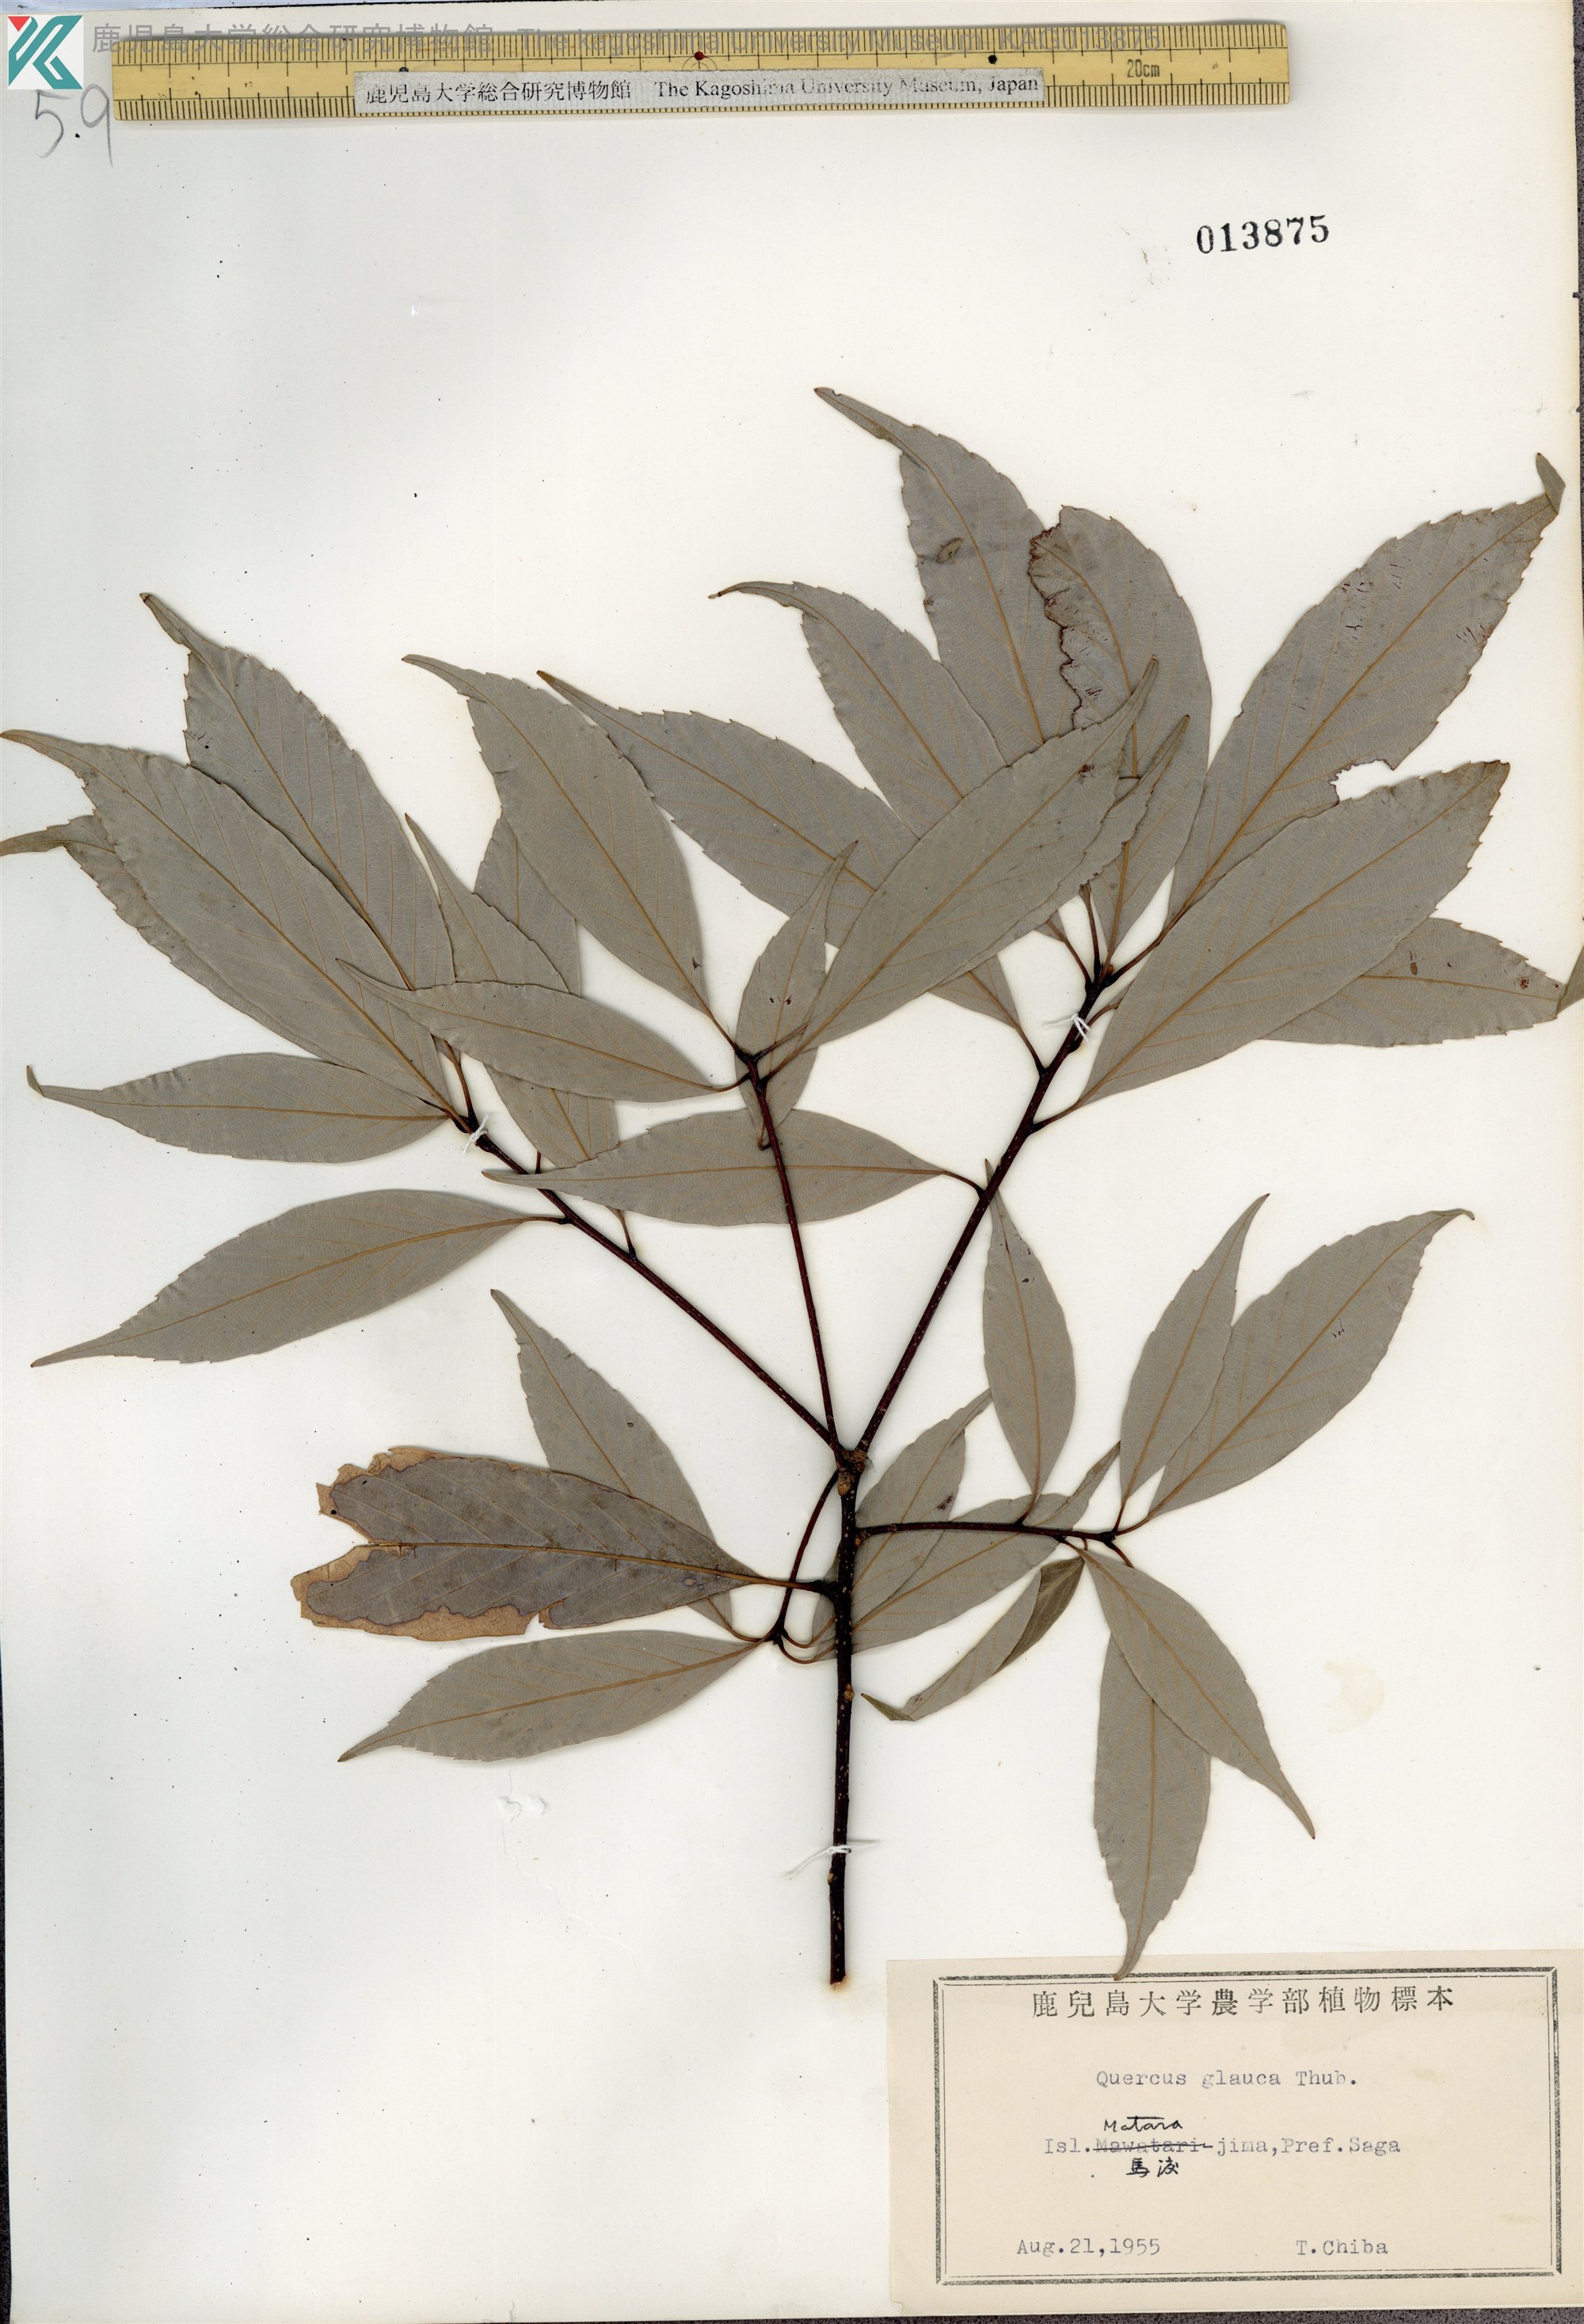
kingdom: Plantae
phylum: Tracheophyta
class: Magnoliopsida
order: Fagales
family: Fagaceae
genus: Quercus
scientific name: Quercus glauca
